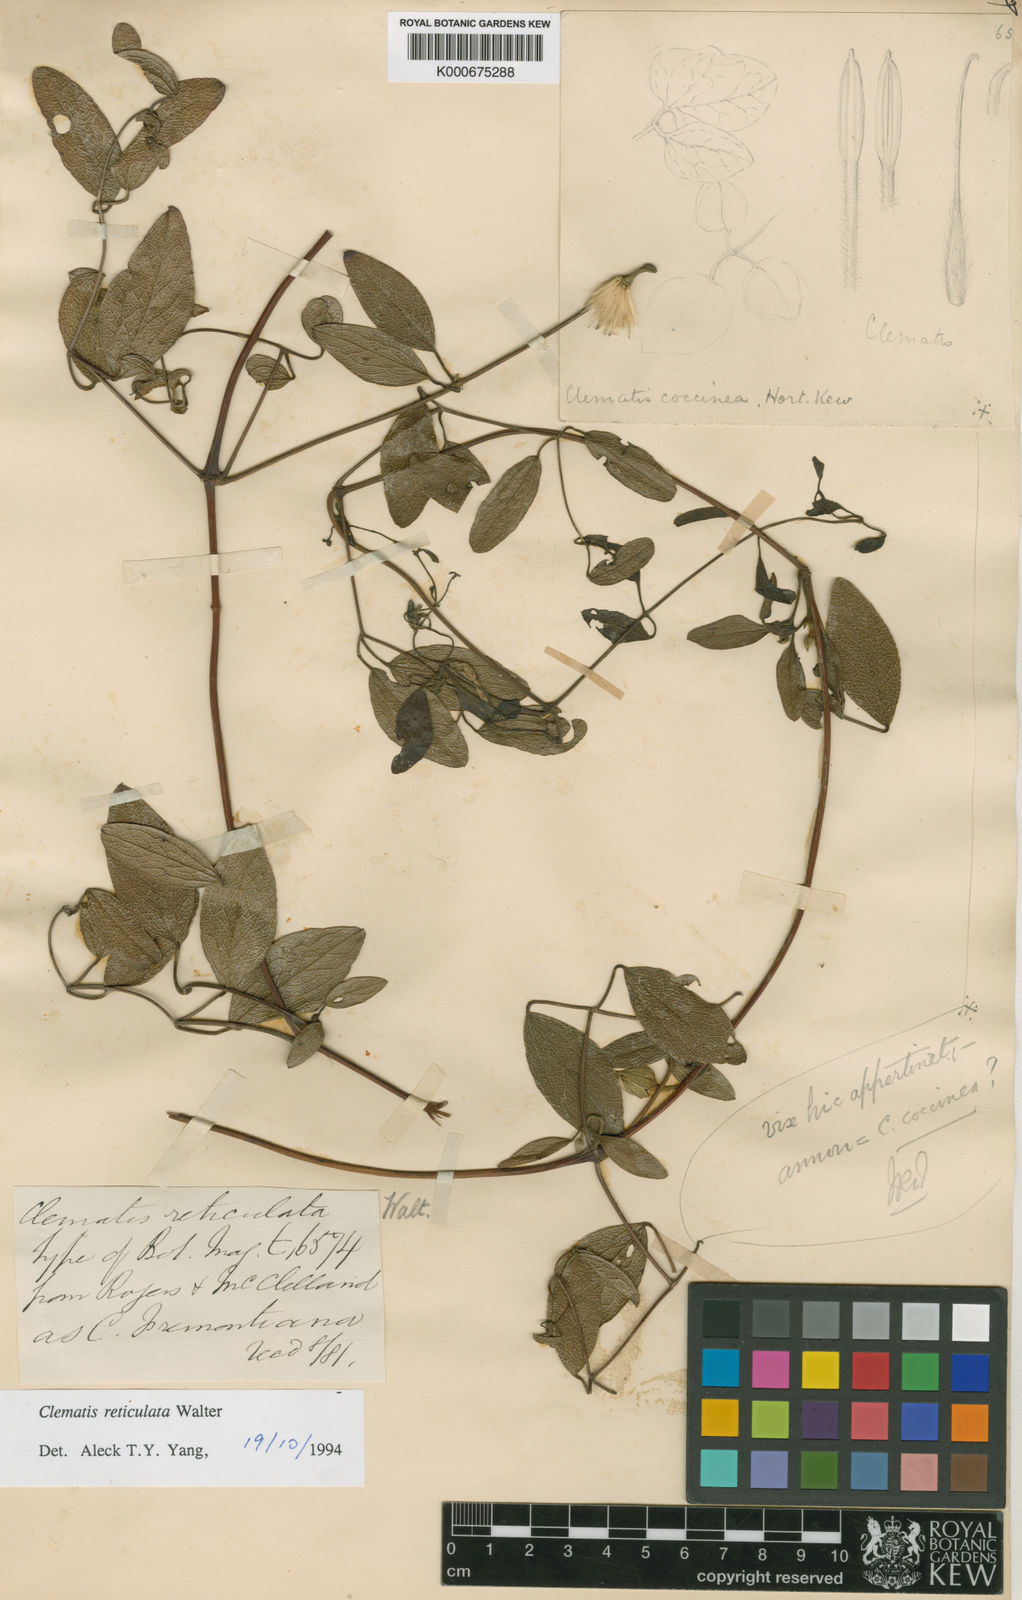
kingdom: Plantae
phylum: Tracheophyta
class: Magnoliopsida
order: Ranunculales
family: Ranunculaceae
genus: Clematis
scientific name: Clematis reticulata
